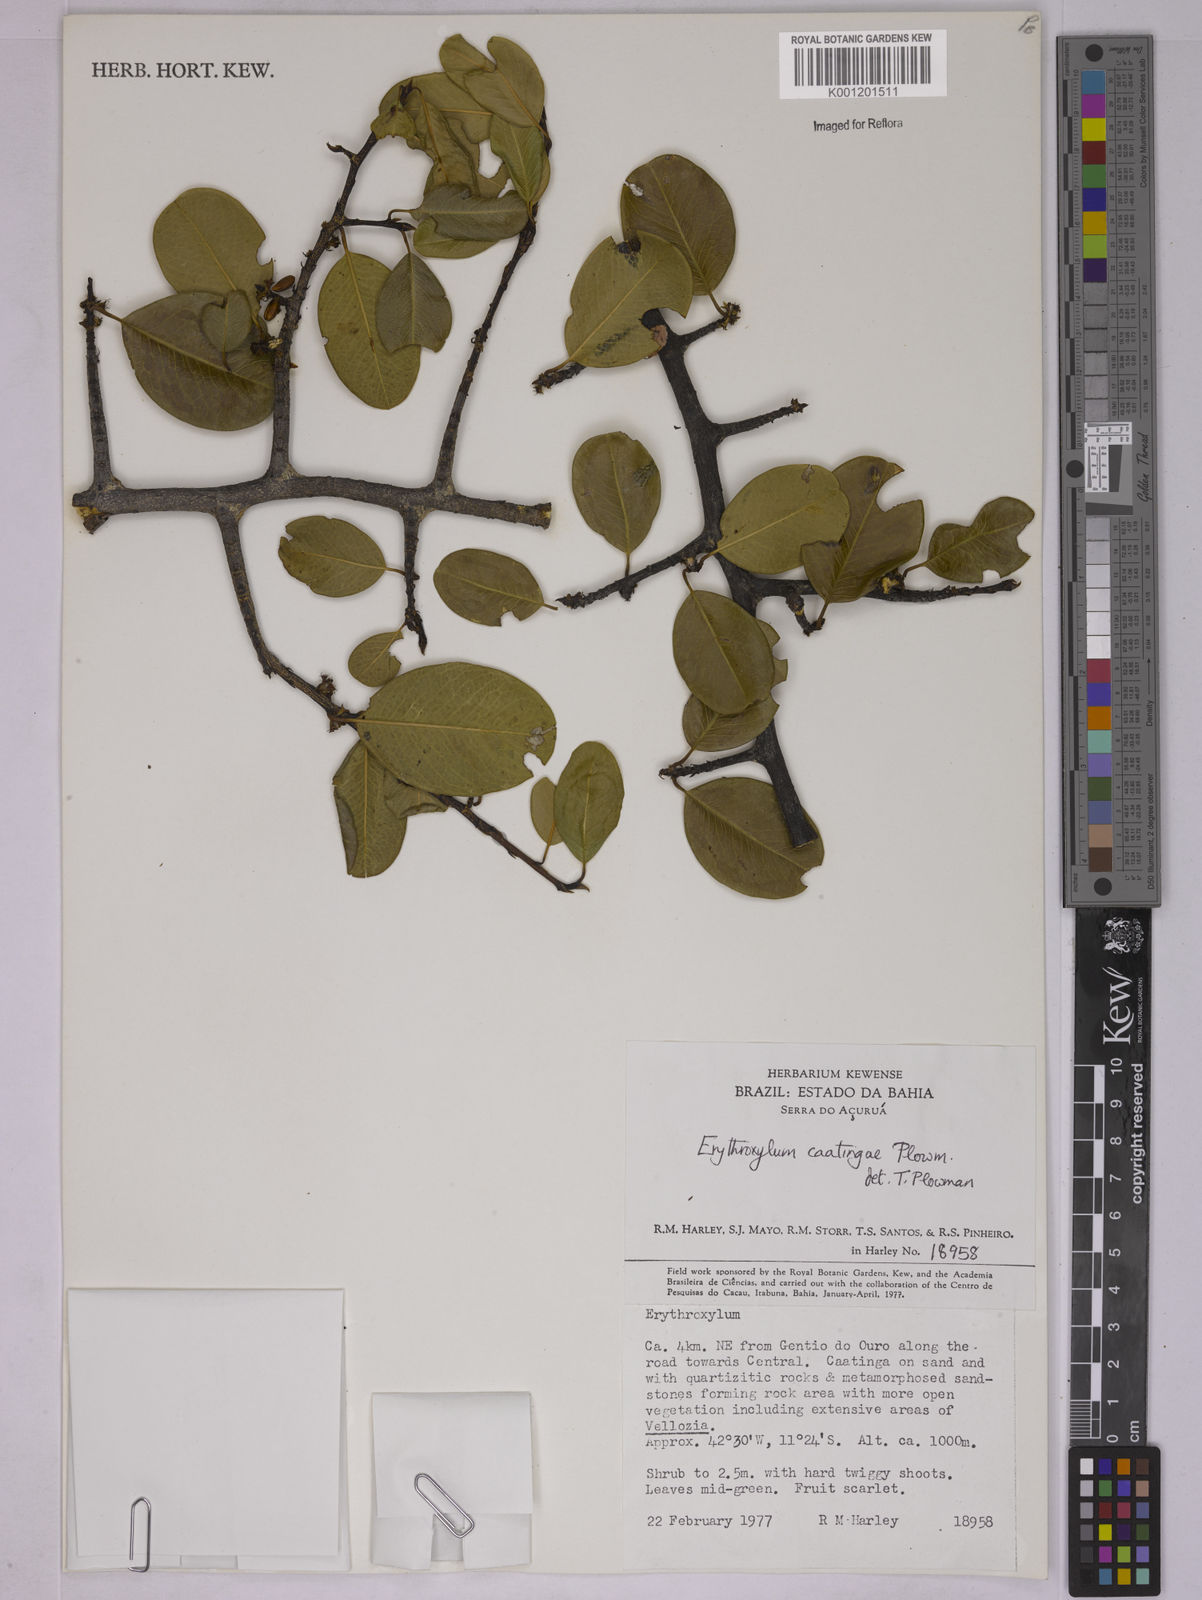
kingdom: Plantae
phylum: Tracheophyta
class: Magnoliopsida
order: Malpighiales
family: Erythroxylaceae
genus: Erythroxylum
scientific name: Erythroxylum caatingae
